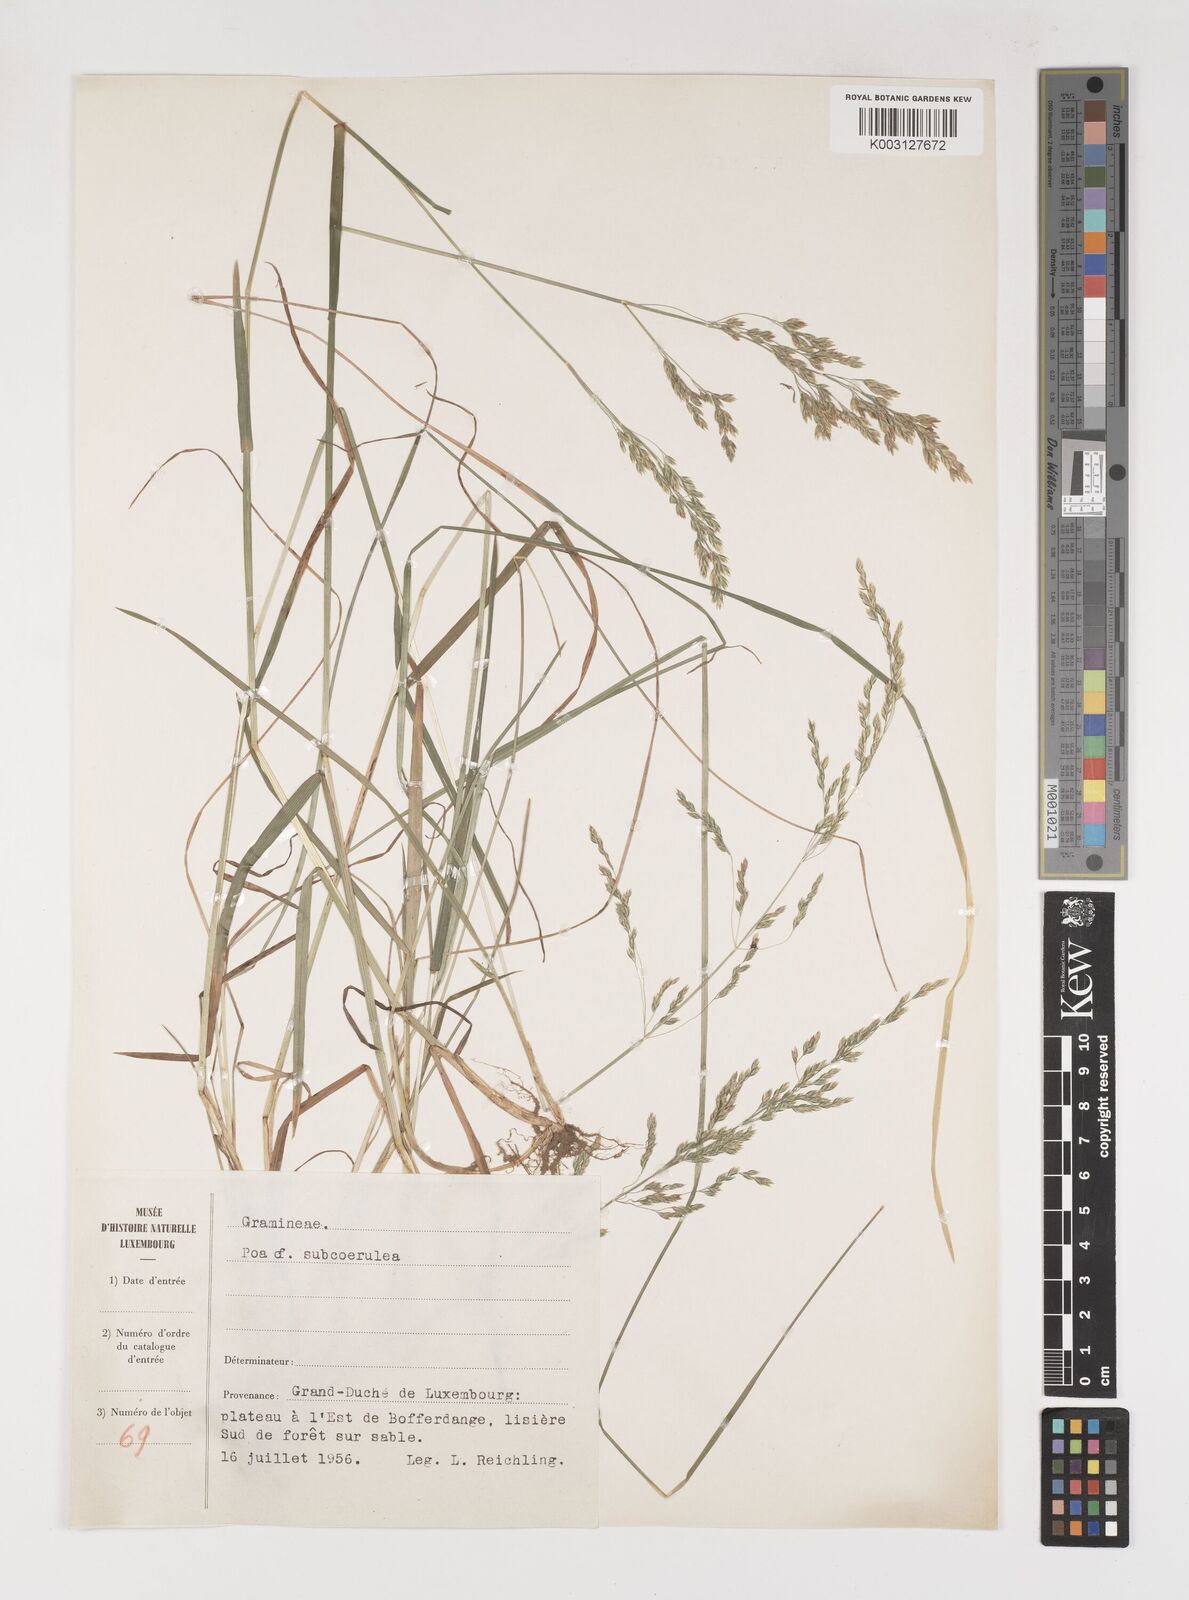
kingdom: Plantae
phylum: Tracheophyta
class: Liliopsida
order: Poales
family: Poaceae
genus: Poa
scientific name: Poa
